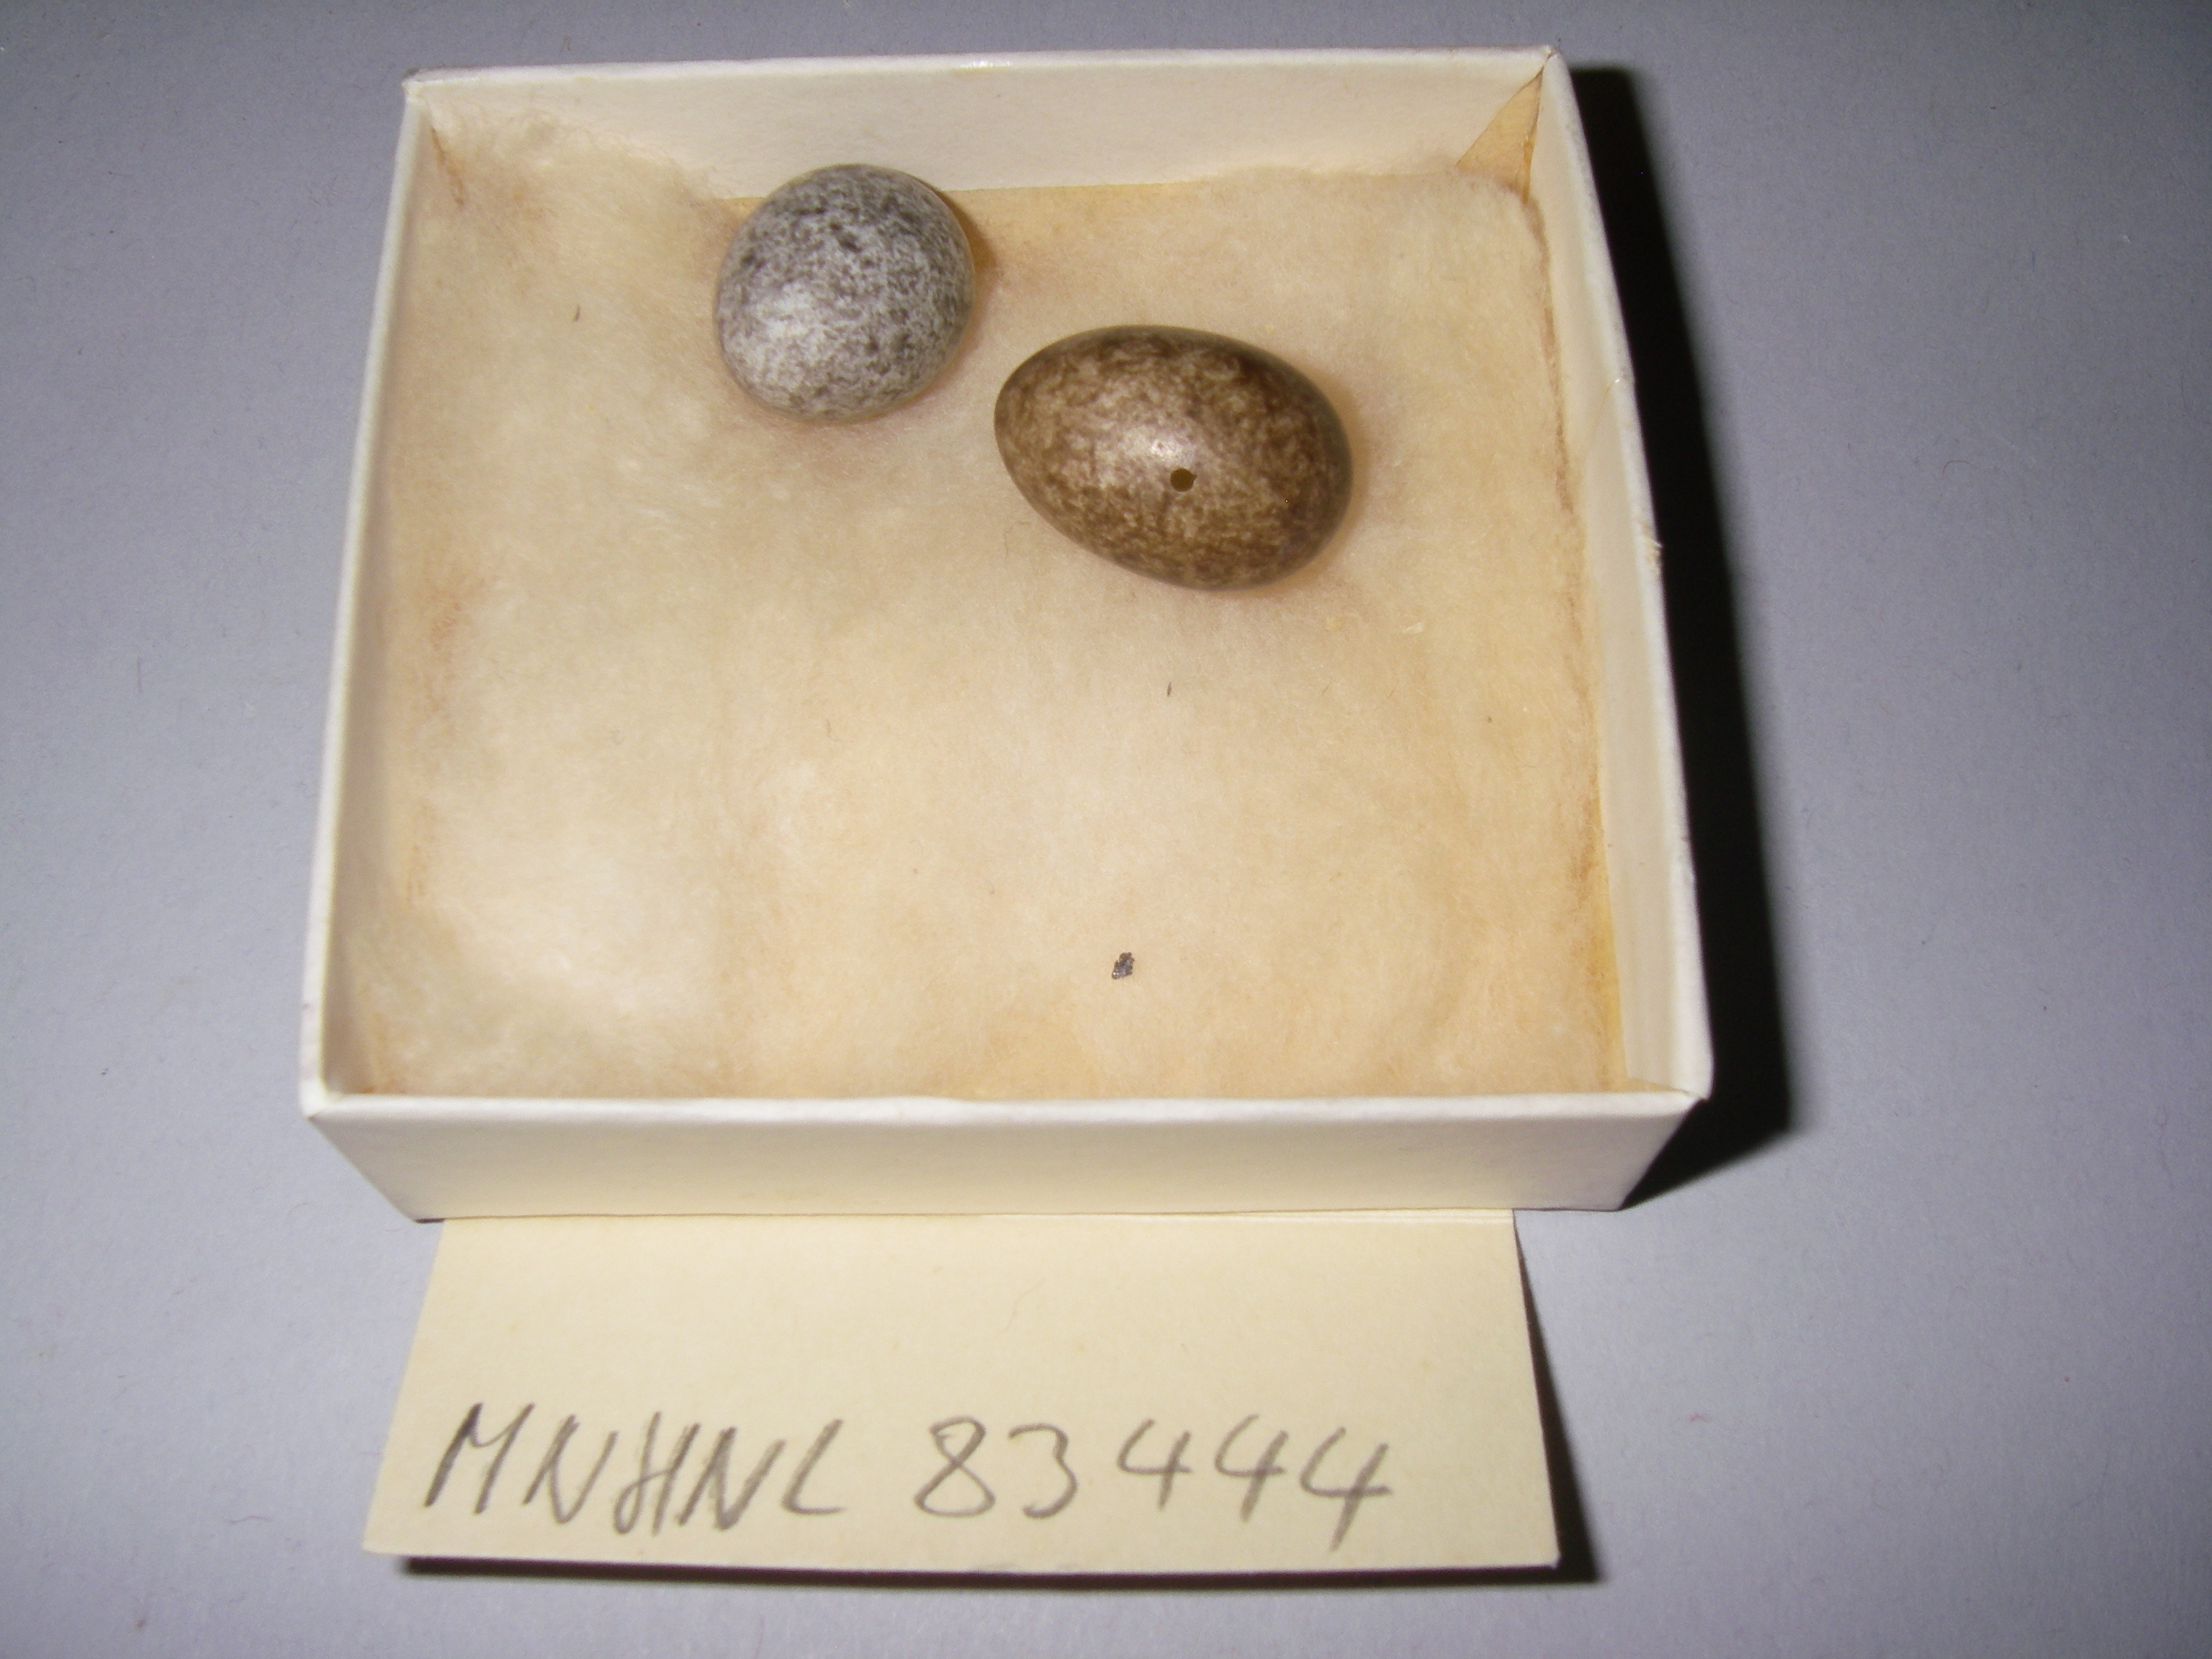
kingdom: Animalia
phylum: Chordata
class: Aves
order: Passeriformes
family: Passeridae
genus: Passer
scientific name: Passer montanus
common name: Eurasian tree sparrow
